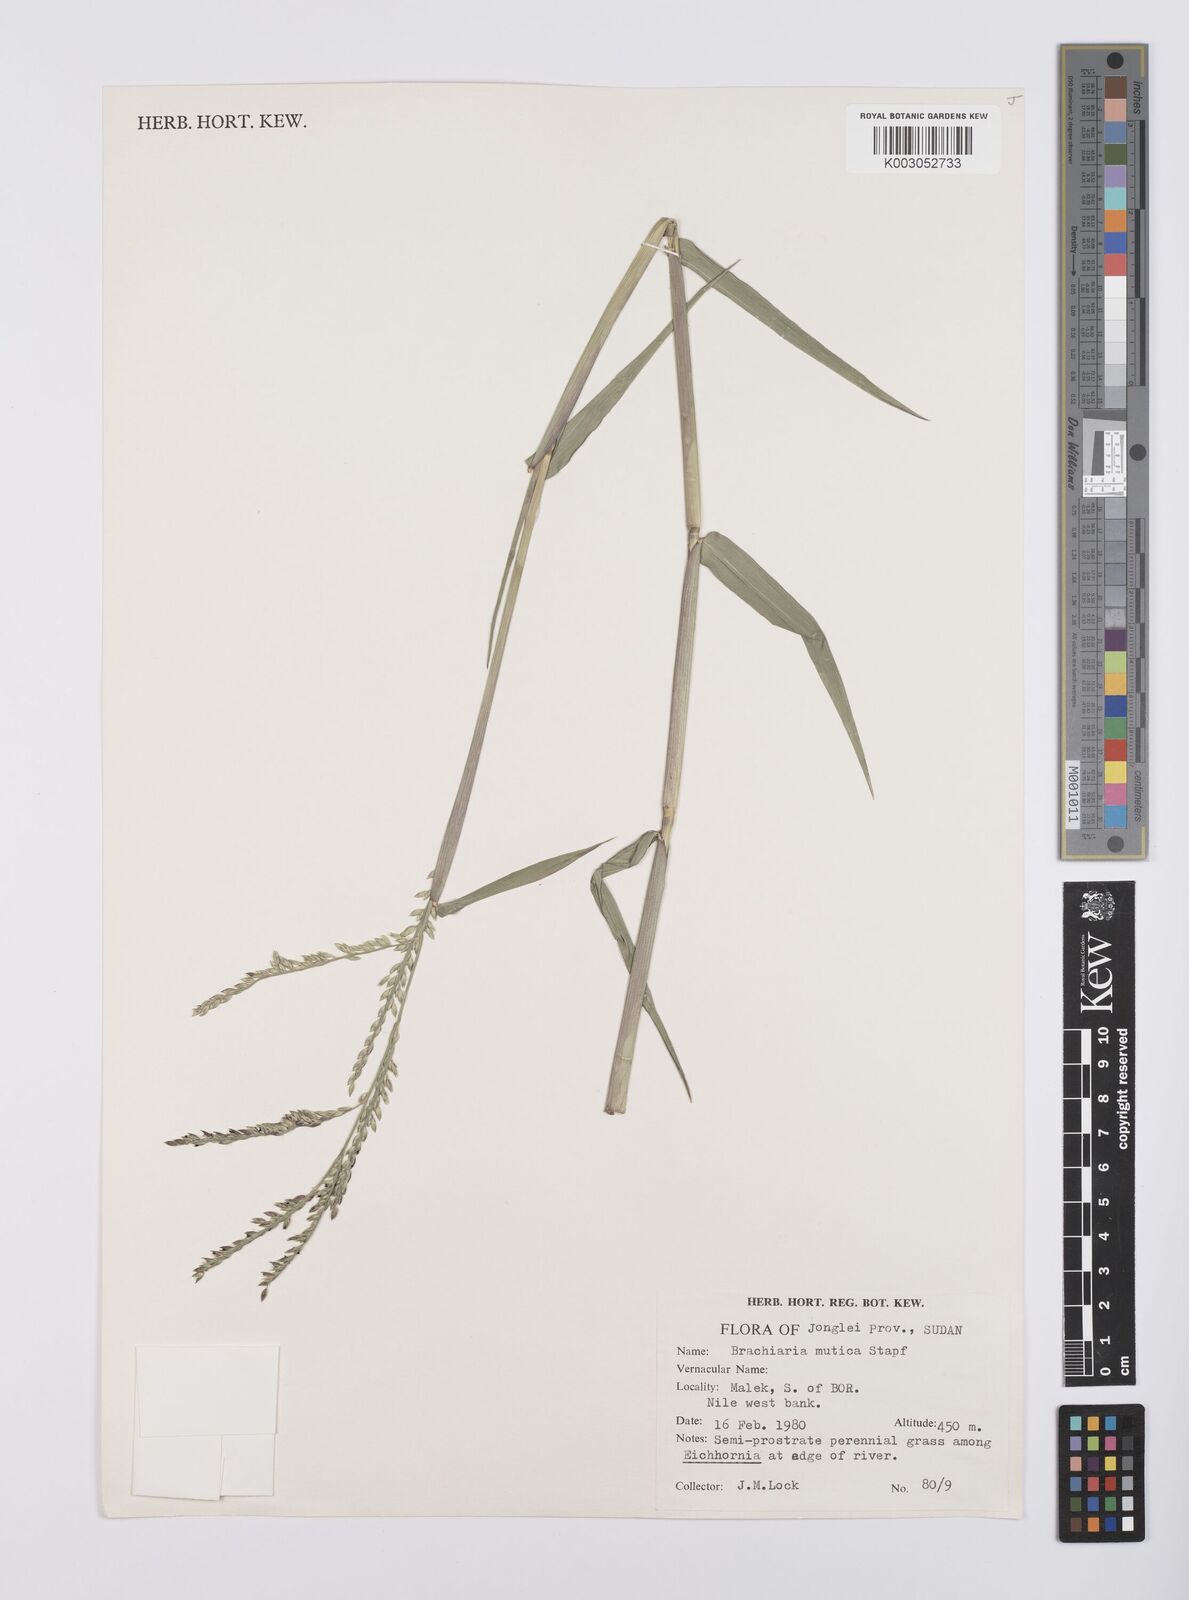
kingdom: Plantae
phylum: Tracheophyta
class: Liliopsida
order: Poales
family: Poaceae
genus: Urochloa
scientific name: Urochloa mutica
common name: Para grass
